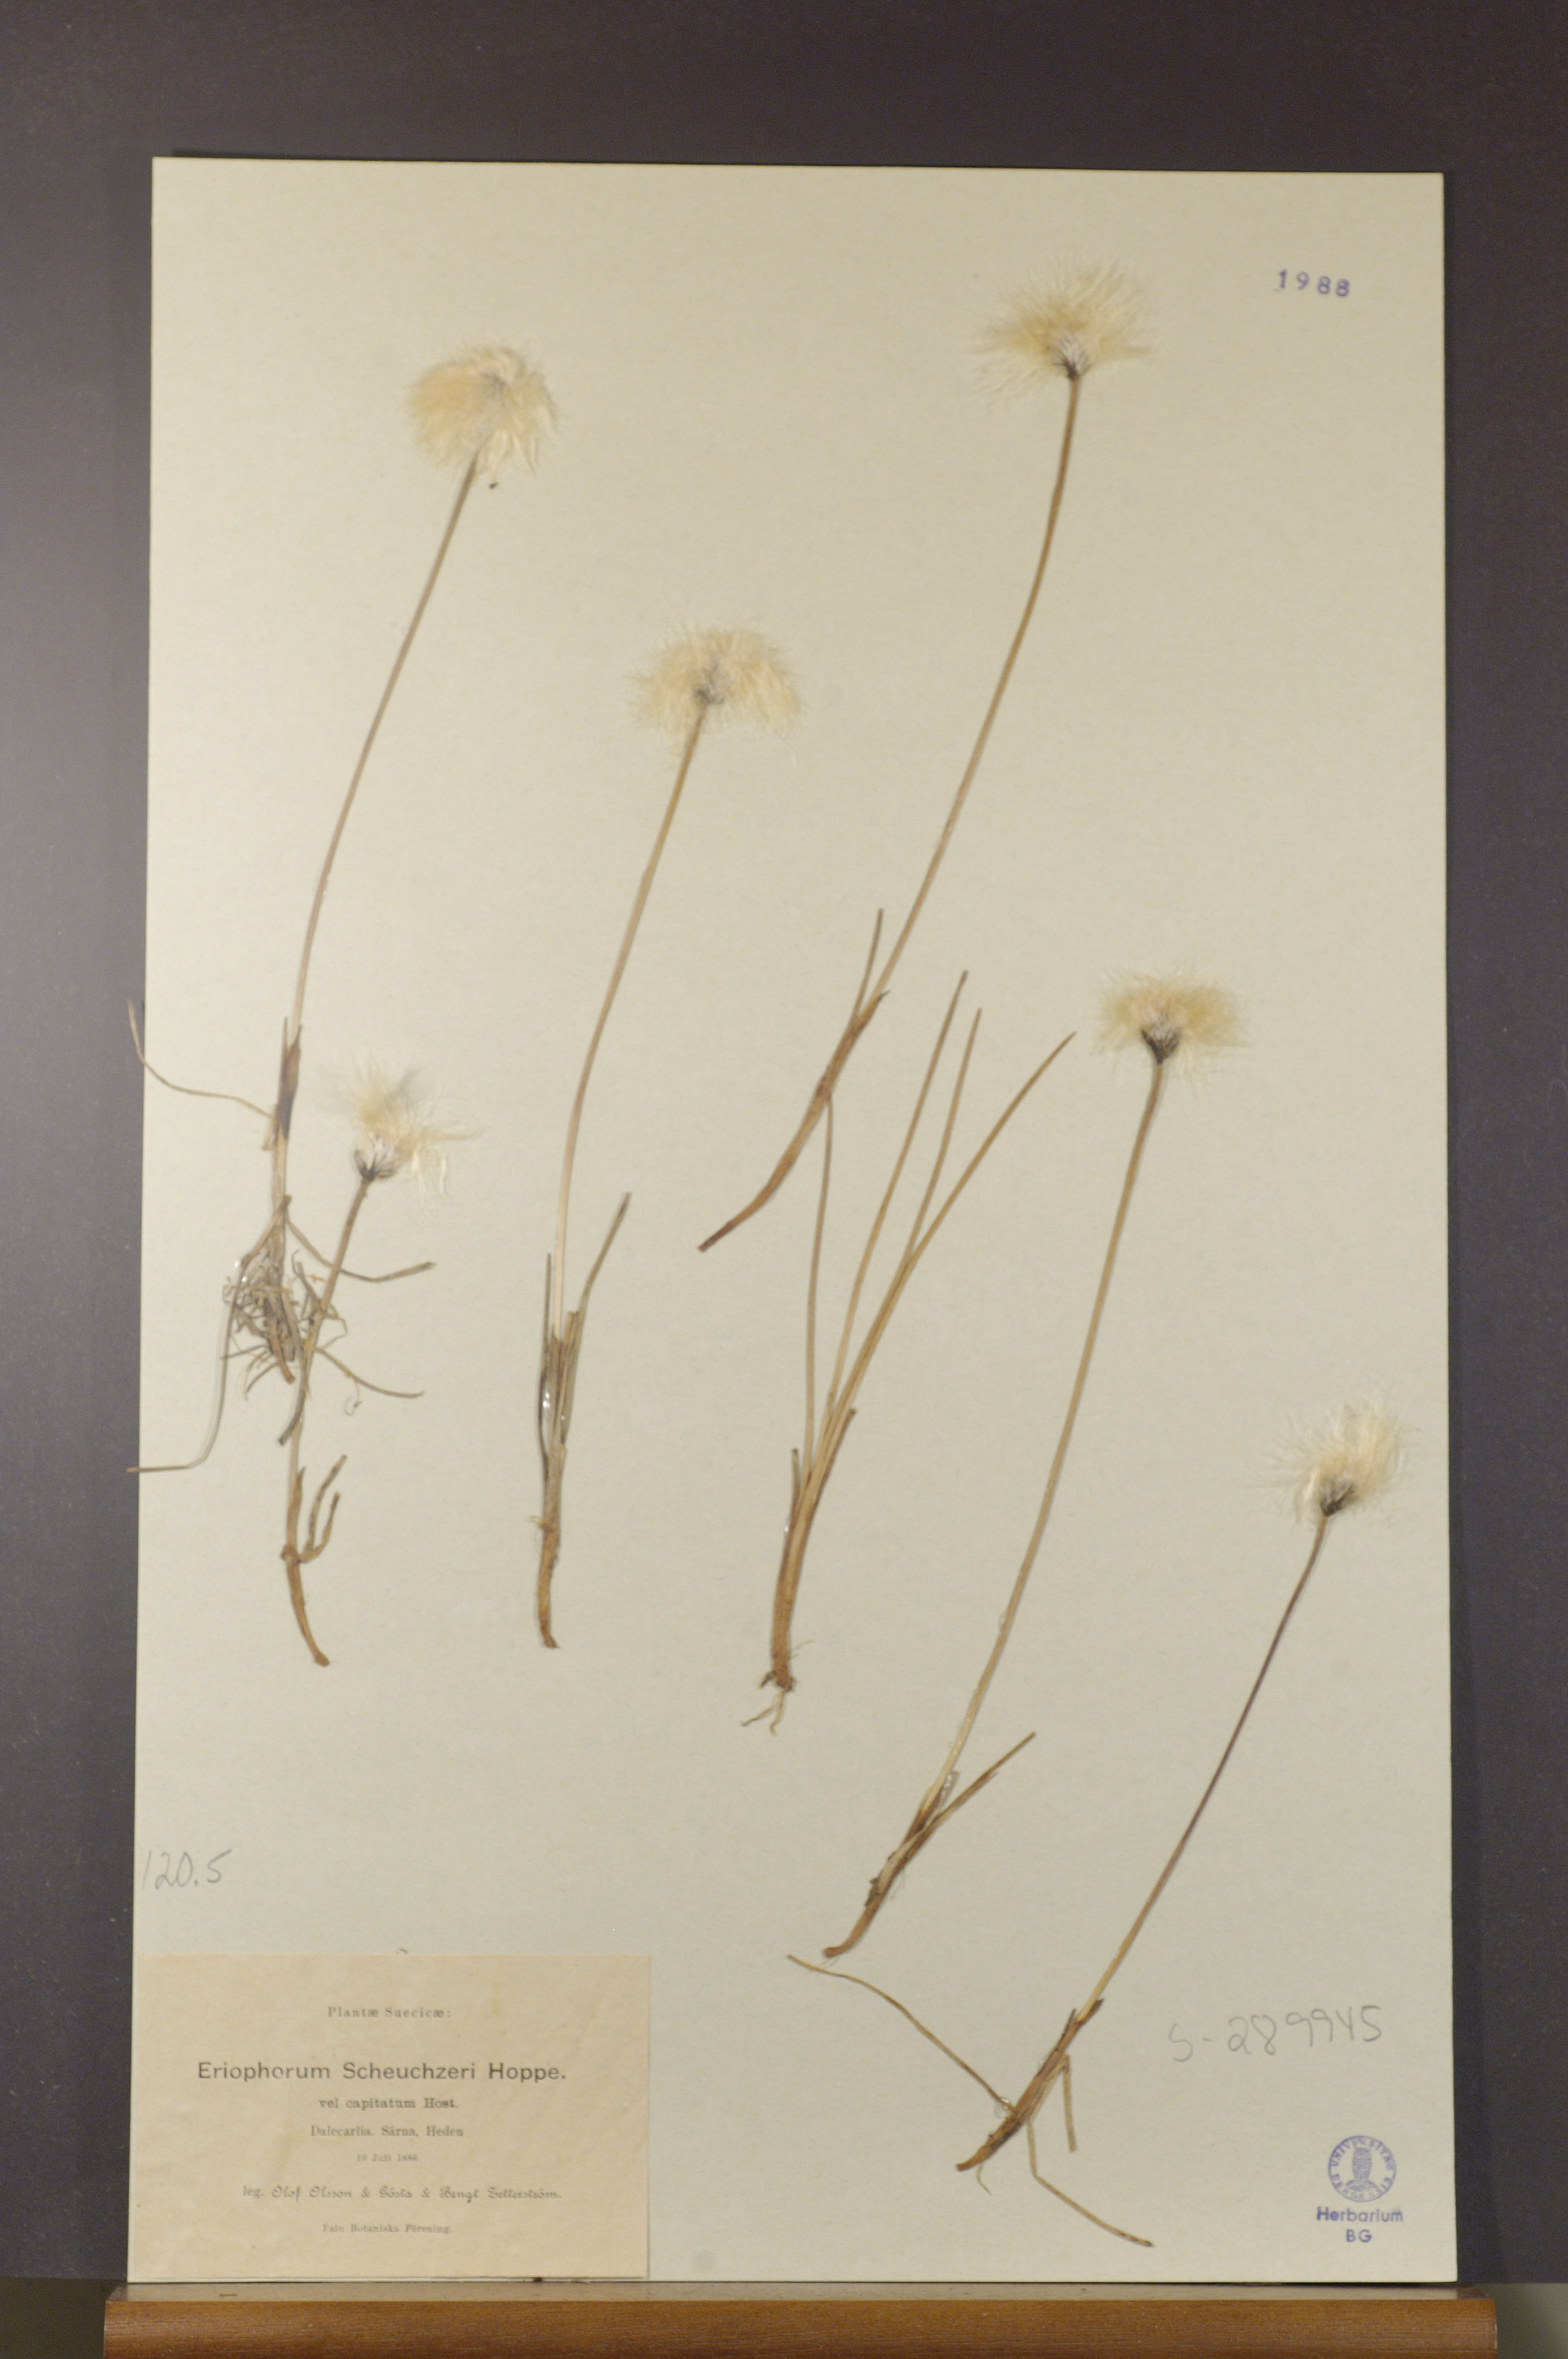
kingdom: Plantae
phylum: Tracheophyta
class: Liliopsida
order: Poales
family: Cyperaceae
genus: Eriophorum
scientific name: Eriophorum scheuchzeri
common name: Scheuchzer's cottongrass
